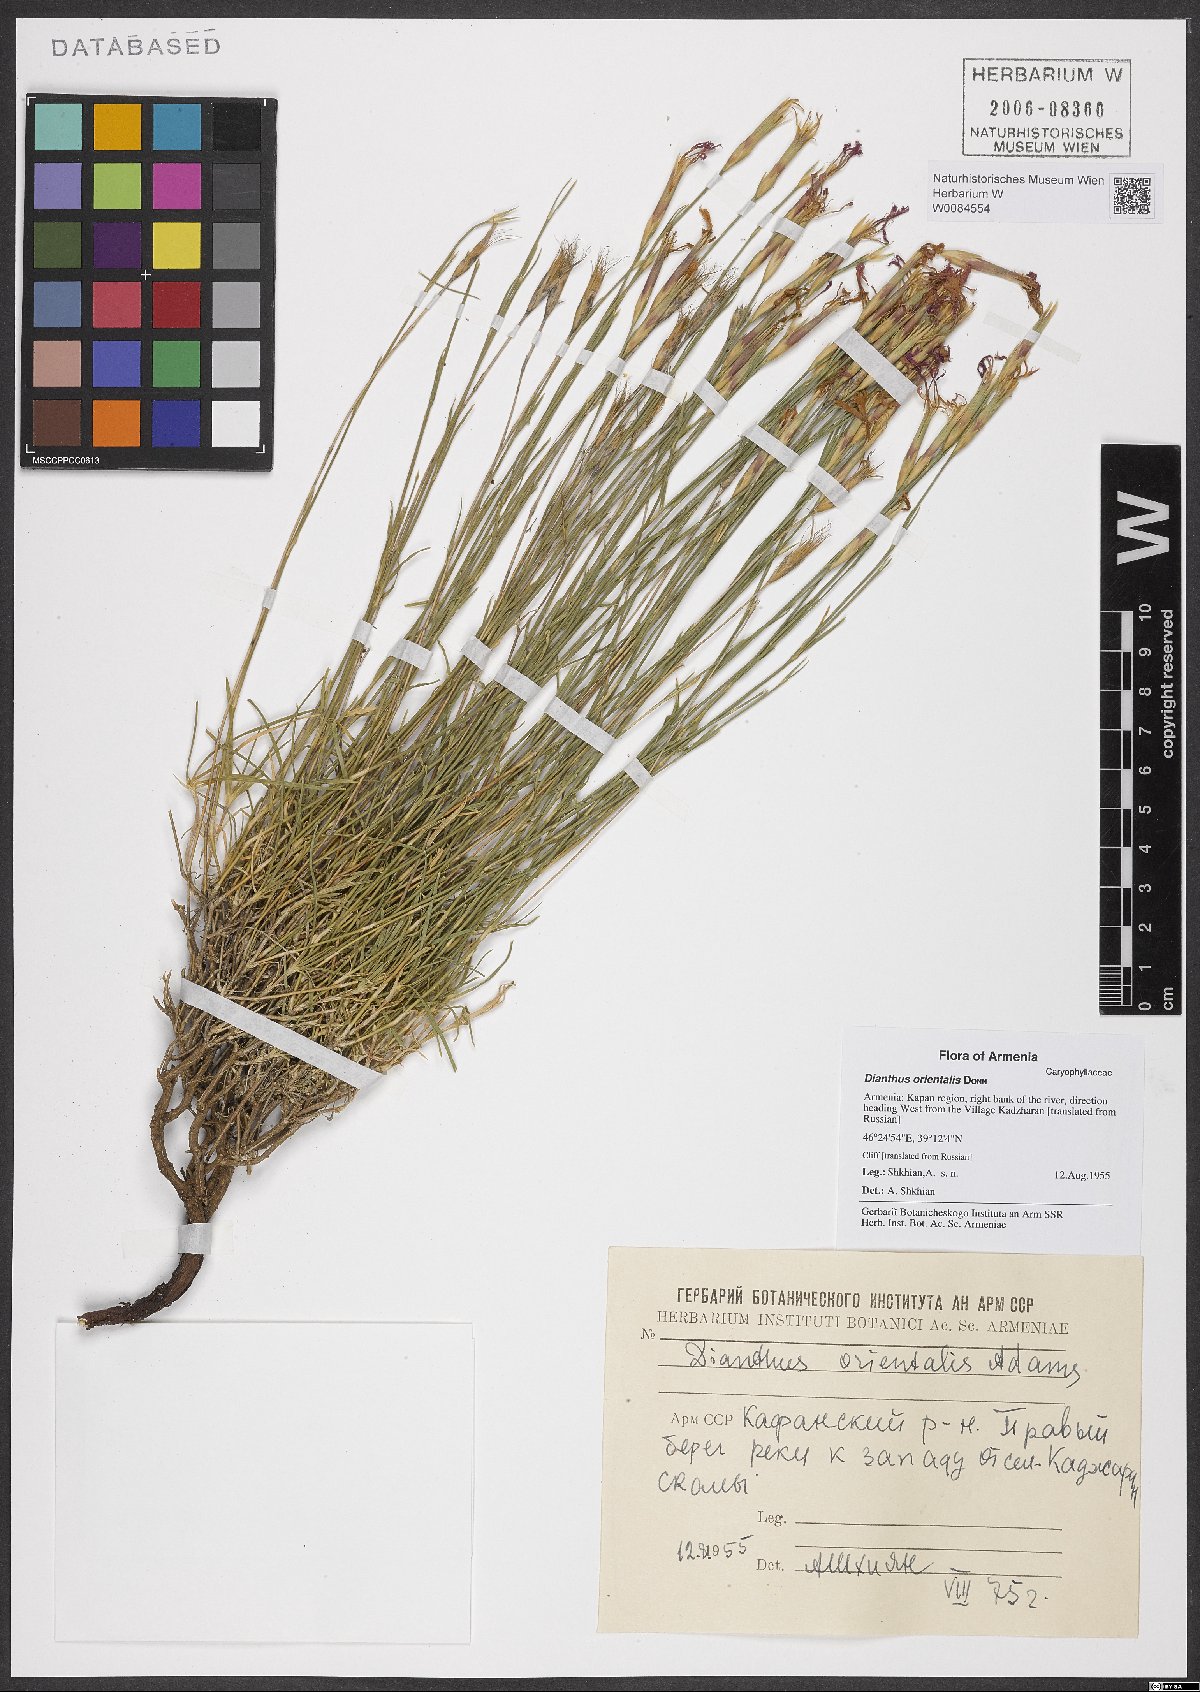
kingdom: Plantae
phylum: Tracheophyta
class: Magnoliopsida
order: Caryophyllales
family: Caryophyllaceae
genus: Dianthus
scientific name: Dianthus orientalis
